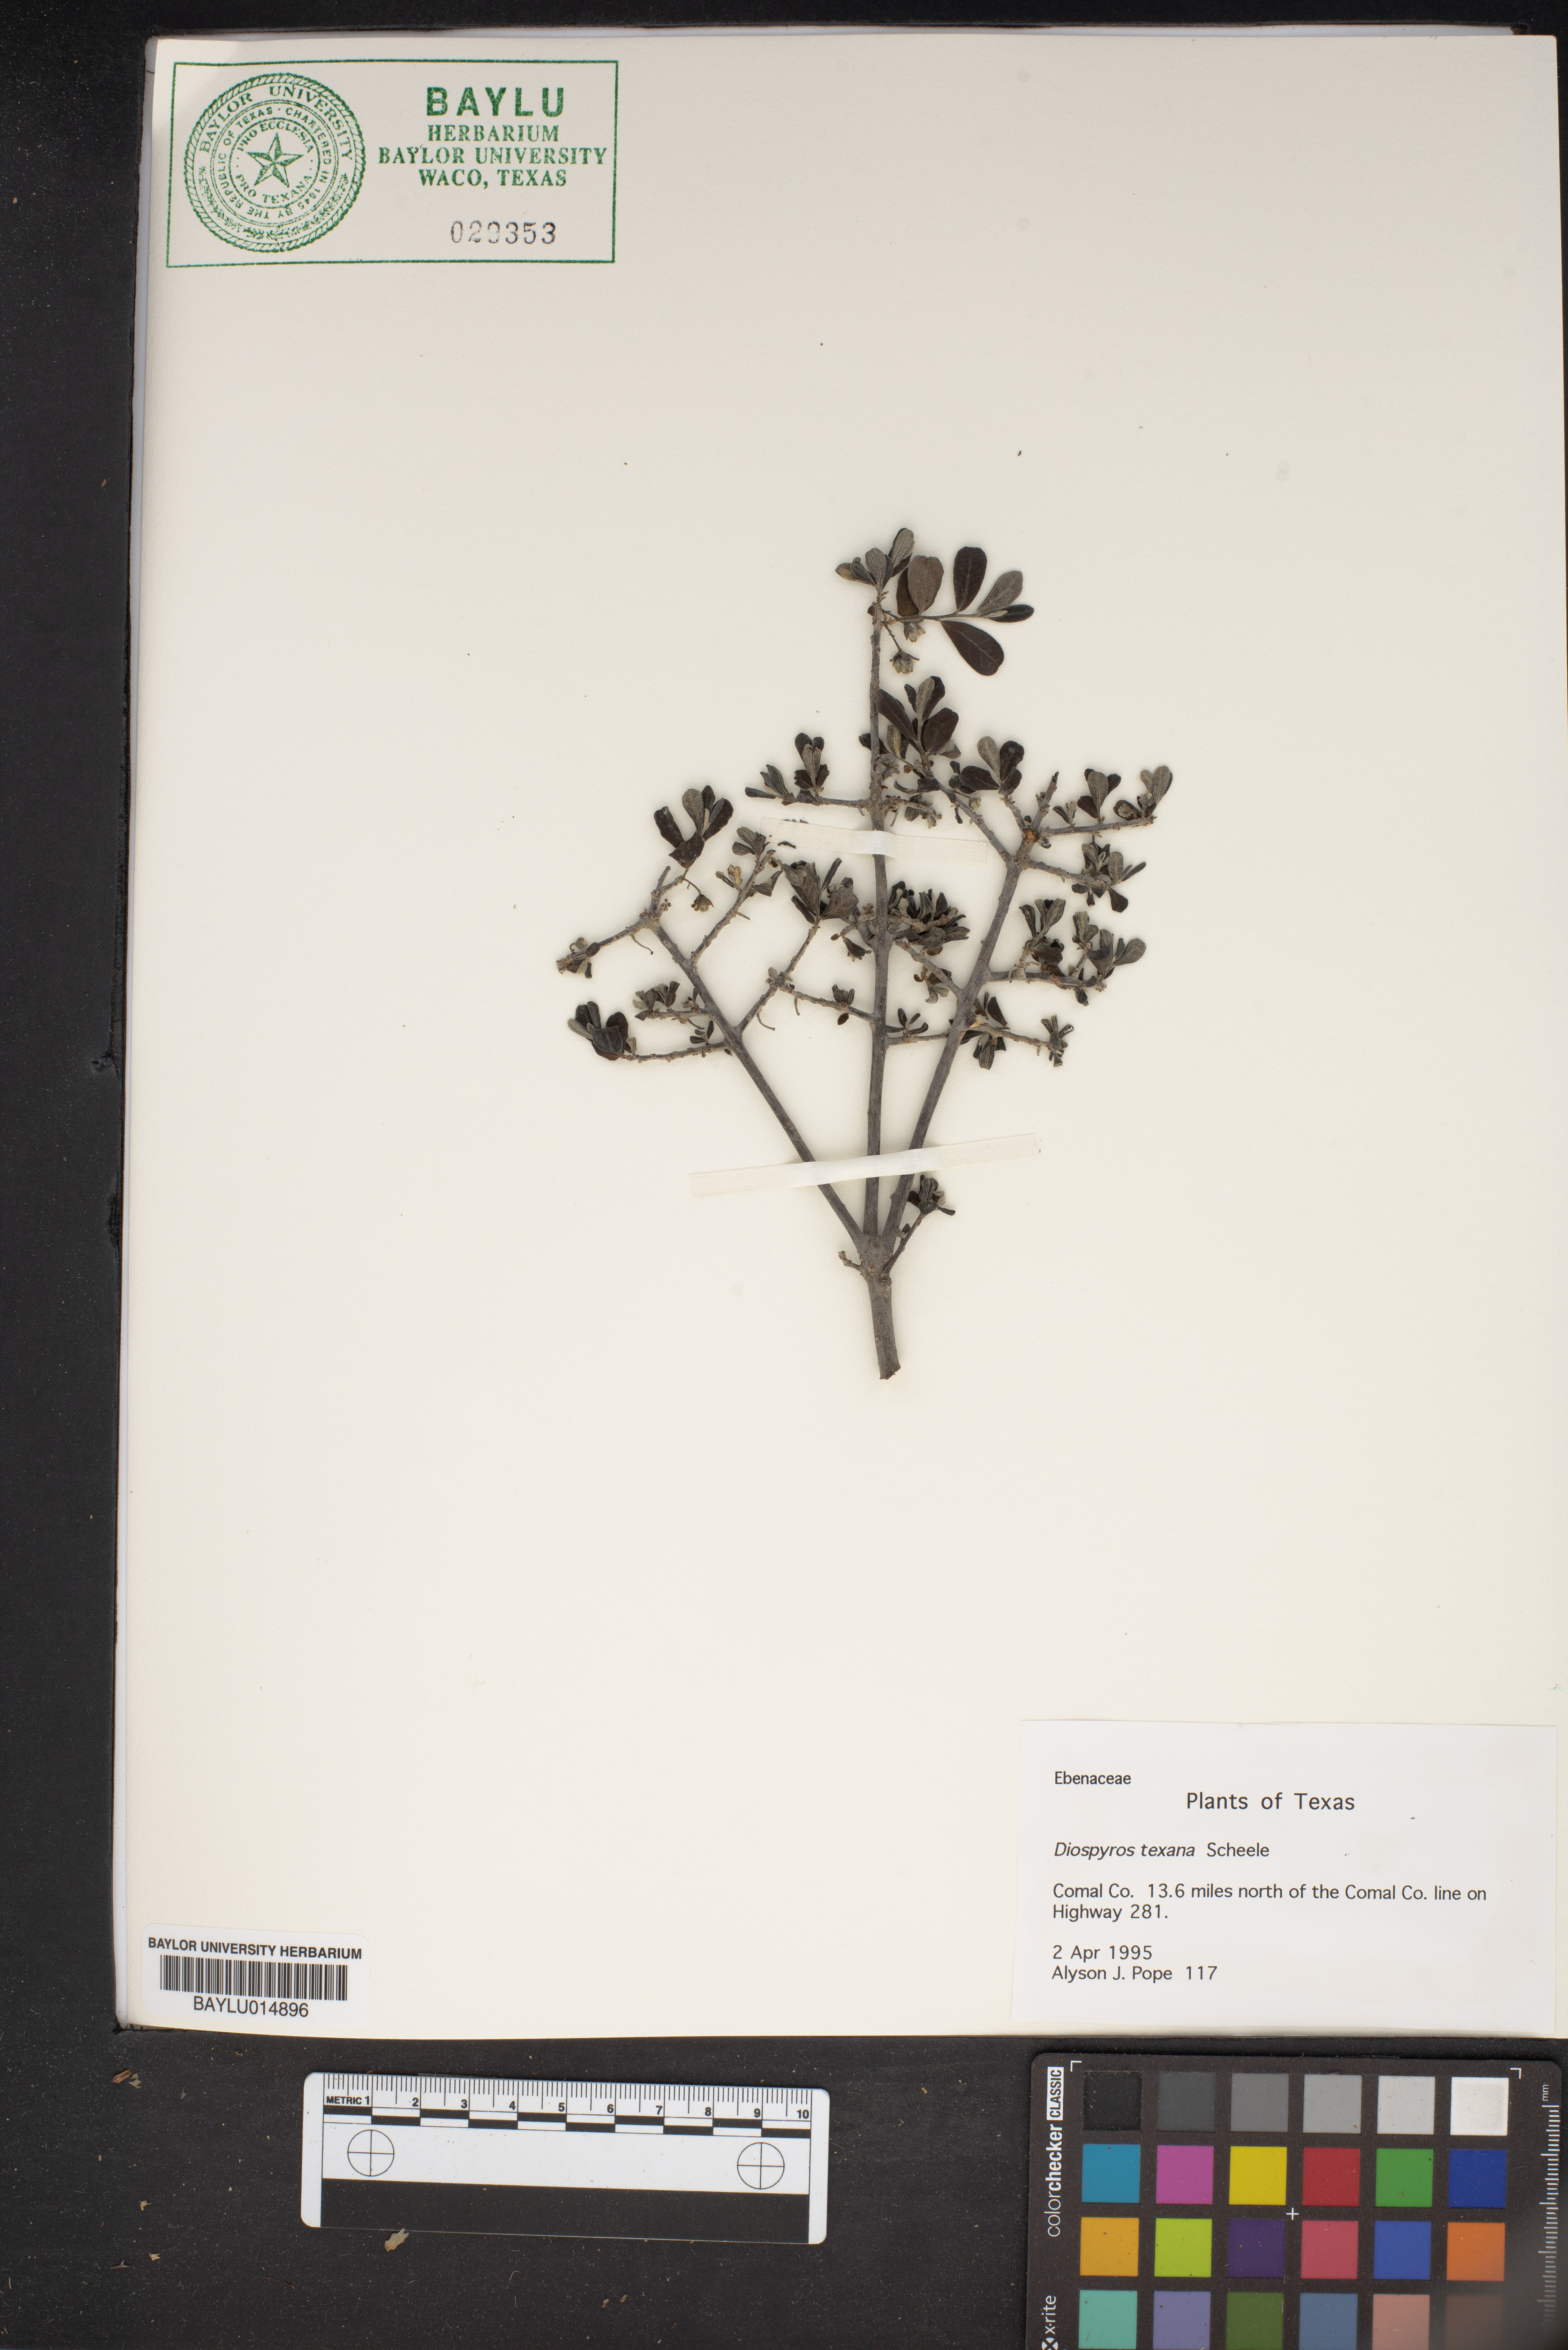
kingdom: Plantae
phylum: Tracheophyta
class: Magnoliopsida
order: Ericales
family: Ebenaceae
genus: Diospyros
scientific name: Diospyros texana
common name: Texas persimmon
